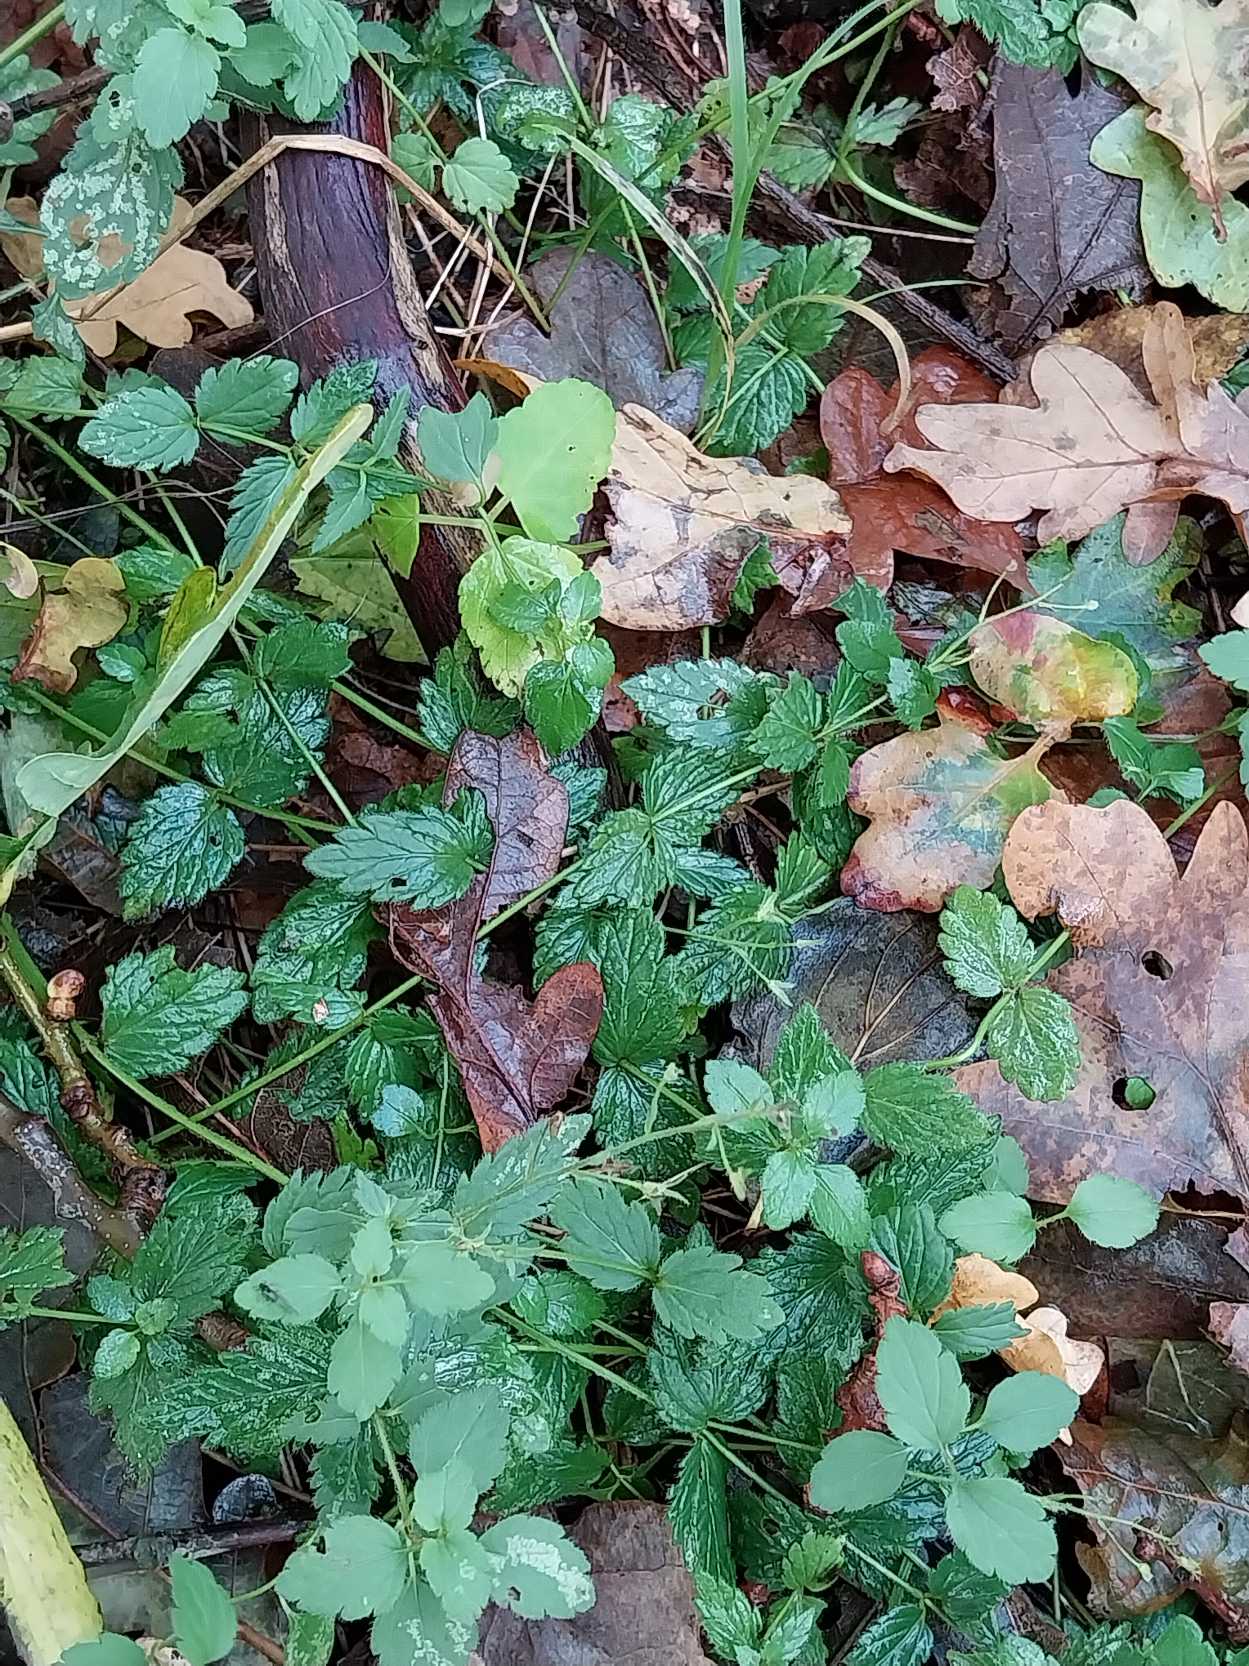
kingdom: Plantae
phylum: Tracheophyta
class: Magnoliopsida
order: Lamiales
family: Plantaginaceae
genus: Veronica
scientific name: Veronica chamaedrys
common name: Tveskægget ærenpris
